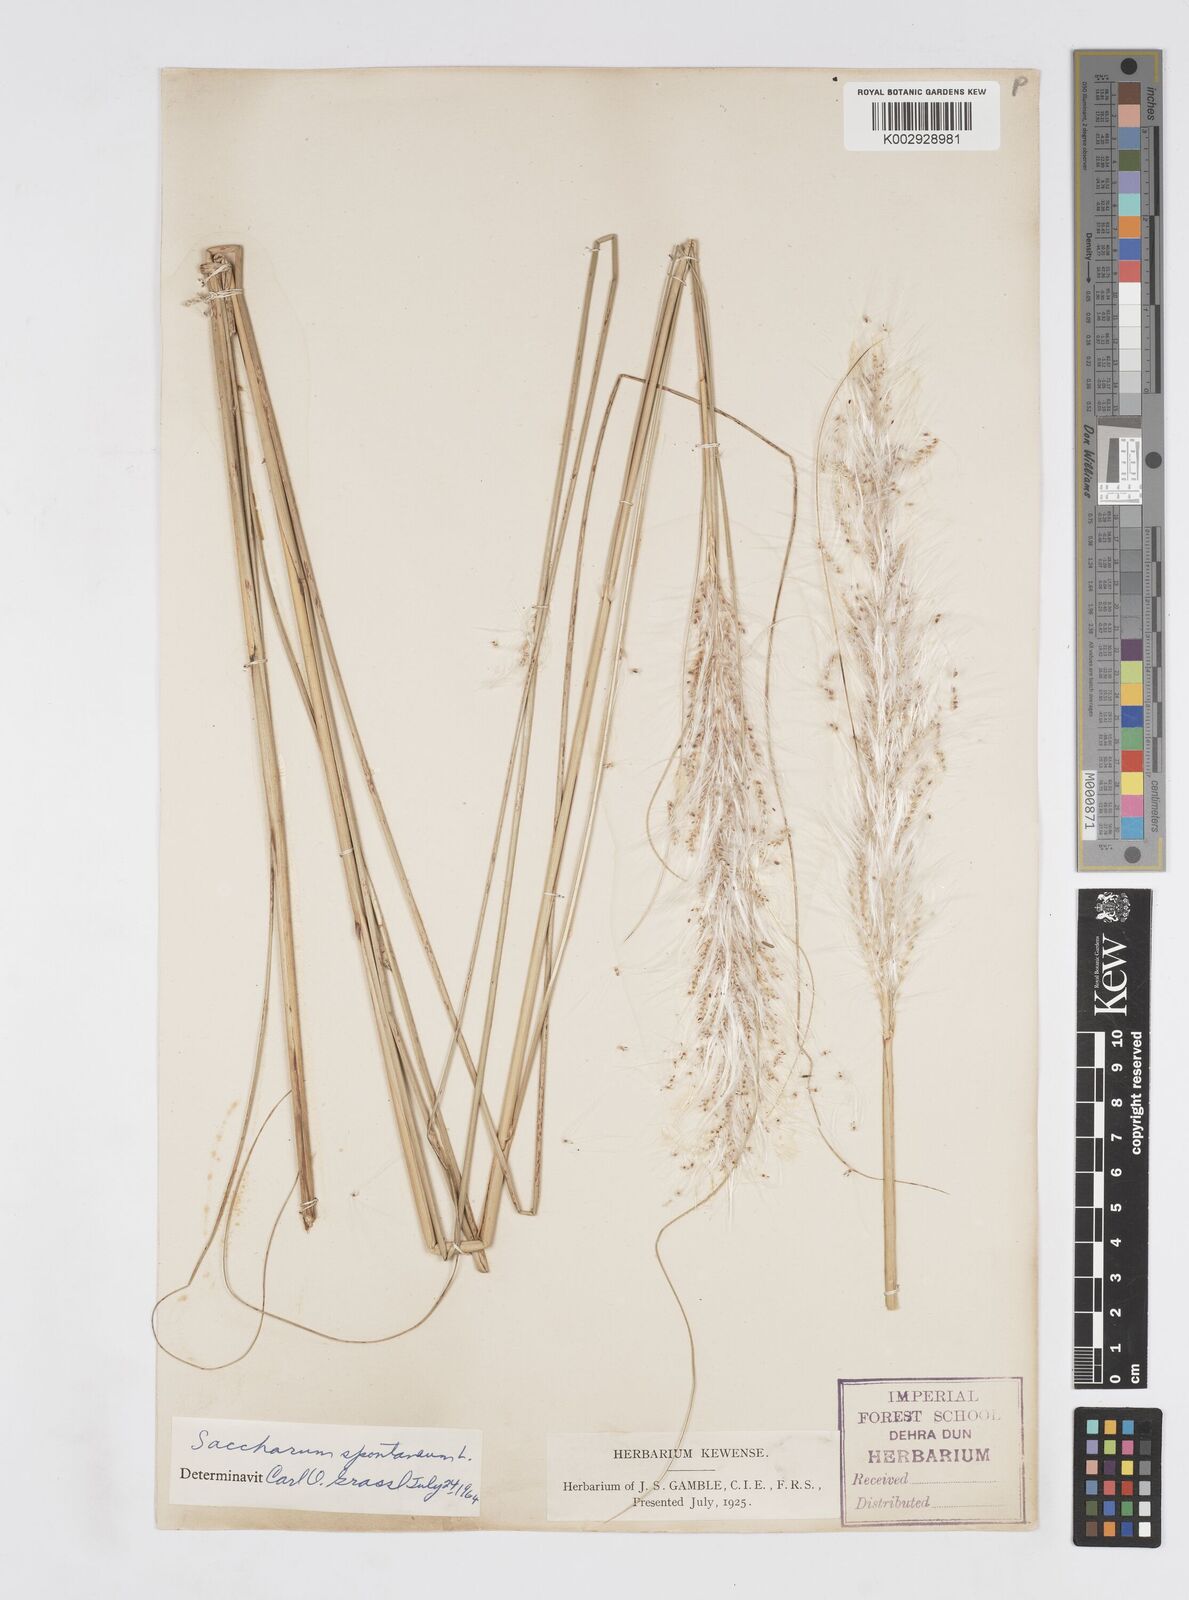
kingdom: Plantae
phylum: Tracheophyta
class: Liliopsida
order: Poales
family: Poaceae
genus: Saccharum
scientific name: Saccharum spontaneum
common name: Wild sugarcane
